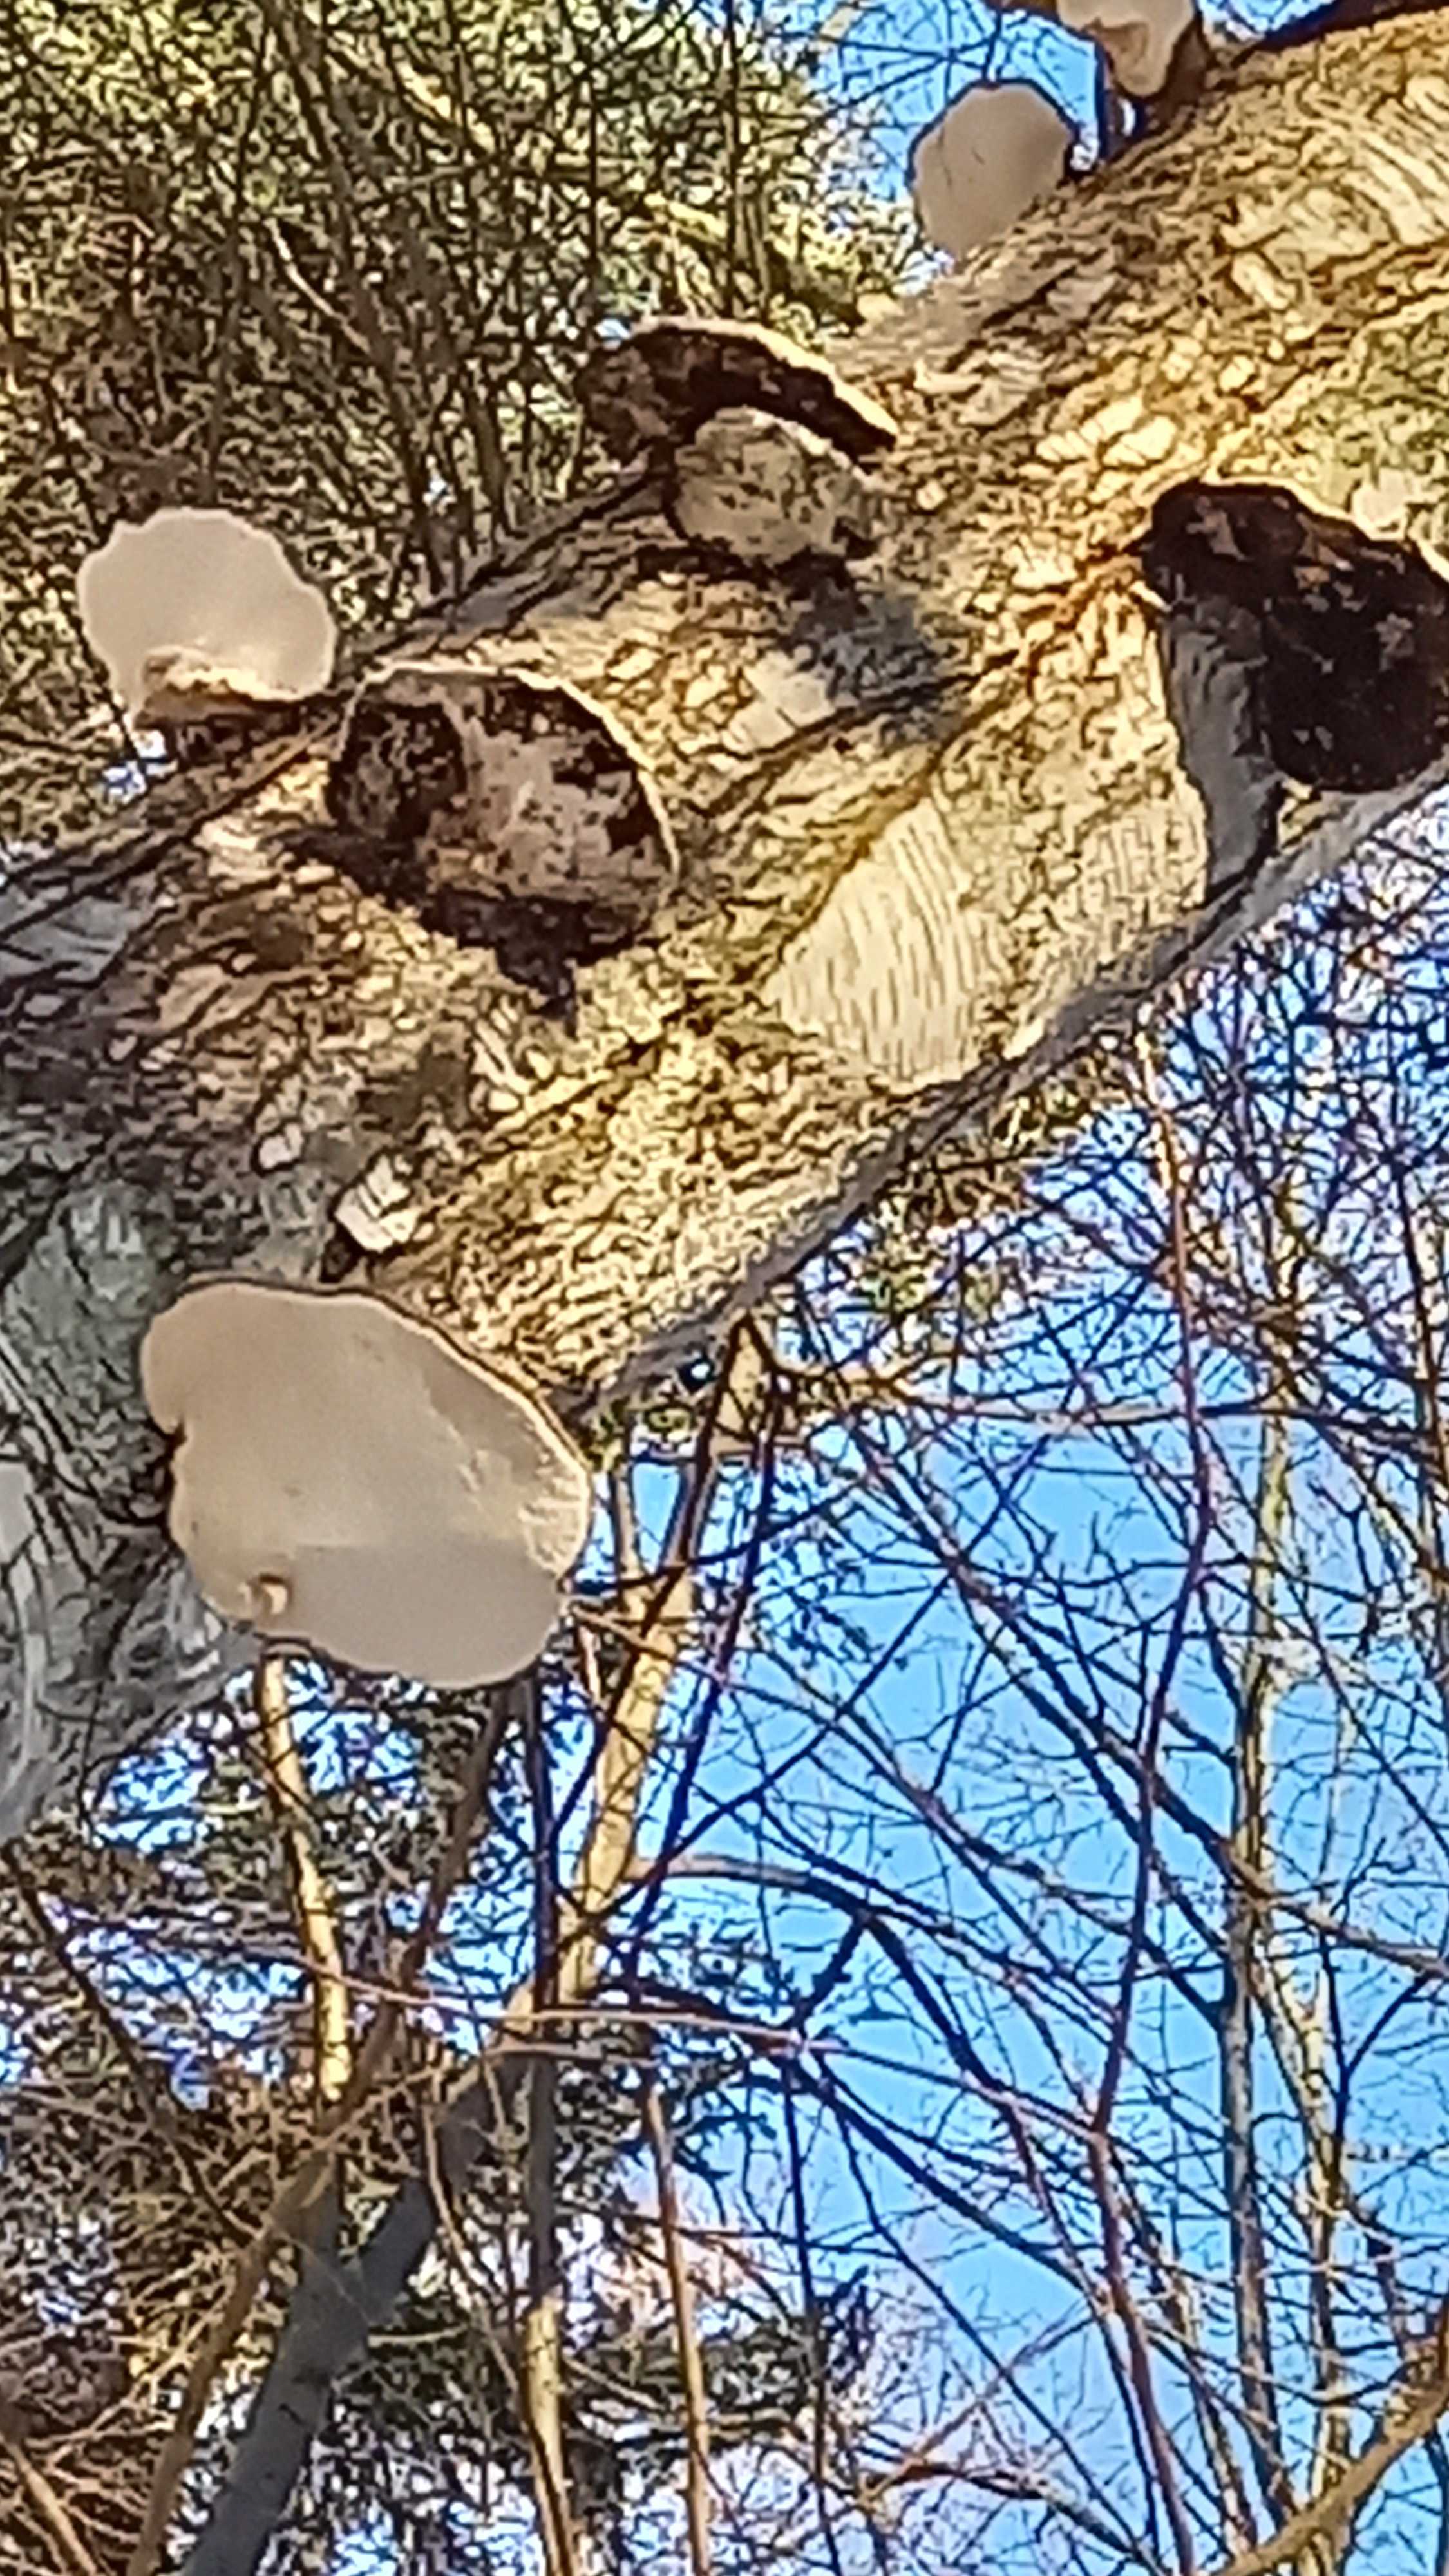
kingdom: Fungi
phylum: Basidiomycota
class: Agaricomycetes
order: Polyporales
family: Fomitopsidaceae
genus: Fomitopsis
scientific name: Fomitopsis betulina
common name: birkeporesvamp
